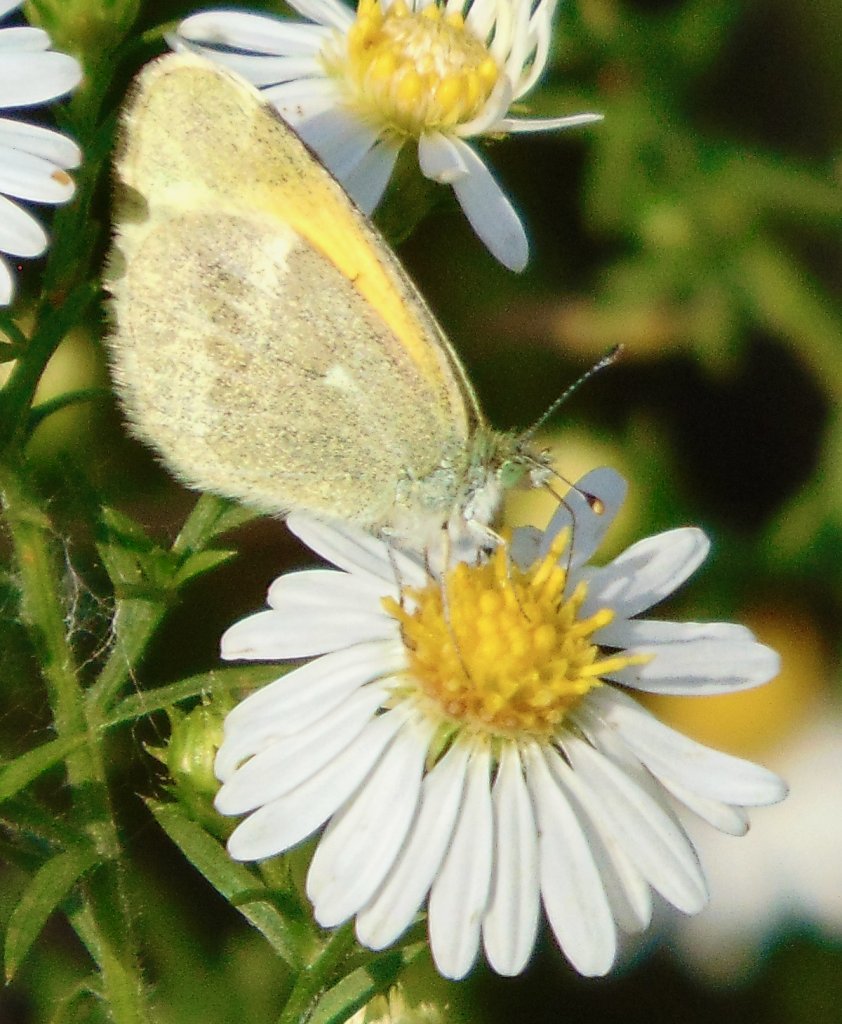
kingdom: Animalia
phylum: Arthropoda
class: Insecta
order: Lepidoptera
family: Pieridae
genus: Nathalis
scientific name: Nathalis iole
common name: Dainty Sulphur
